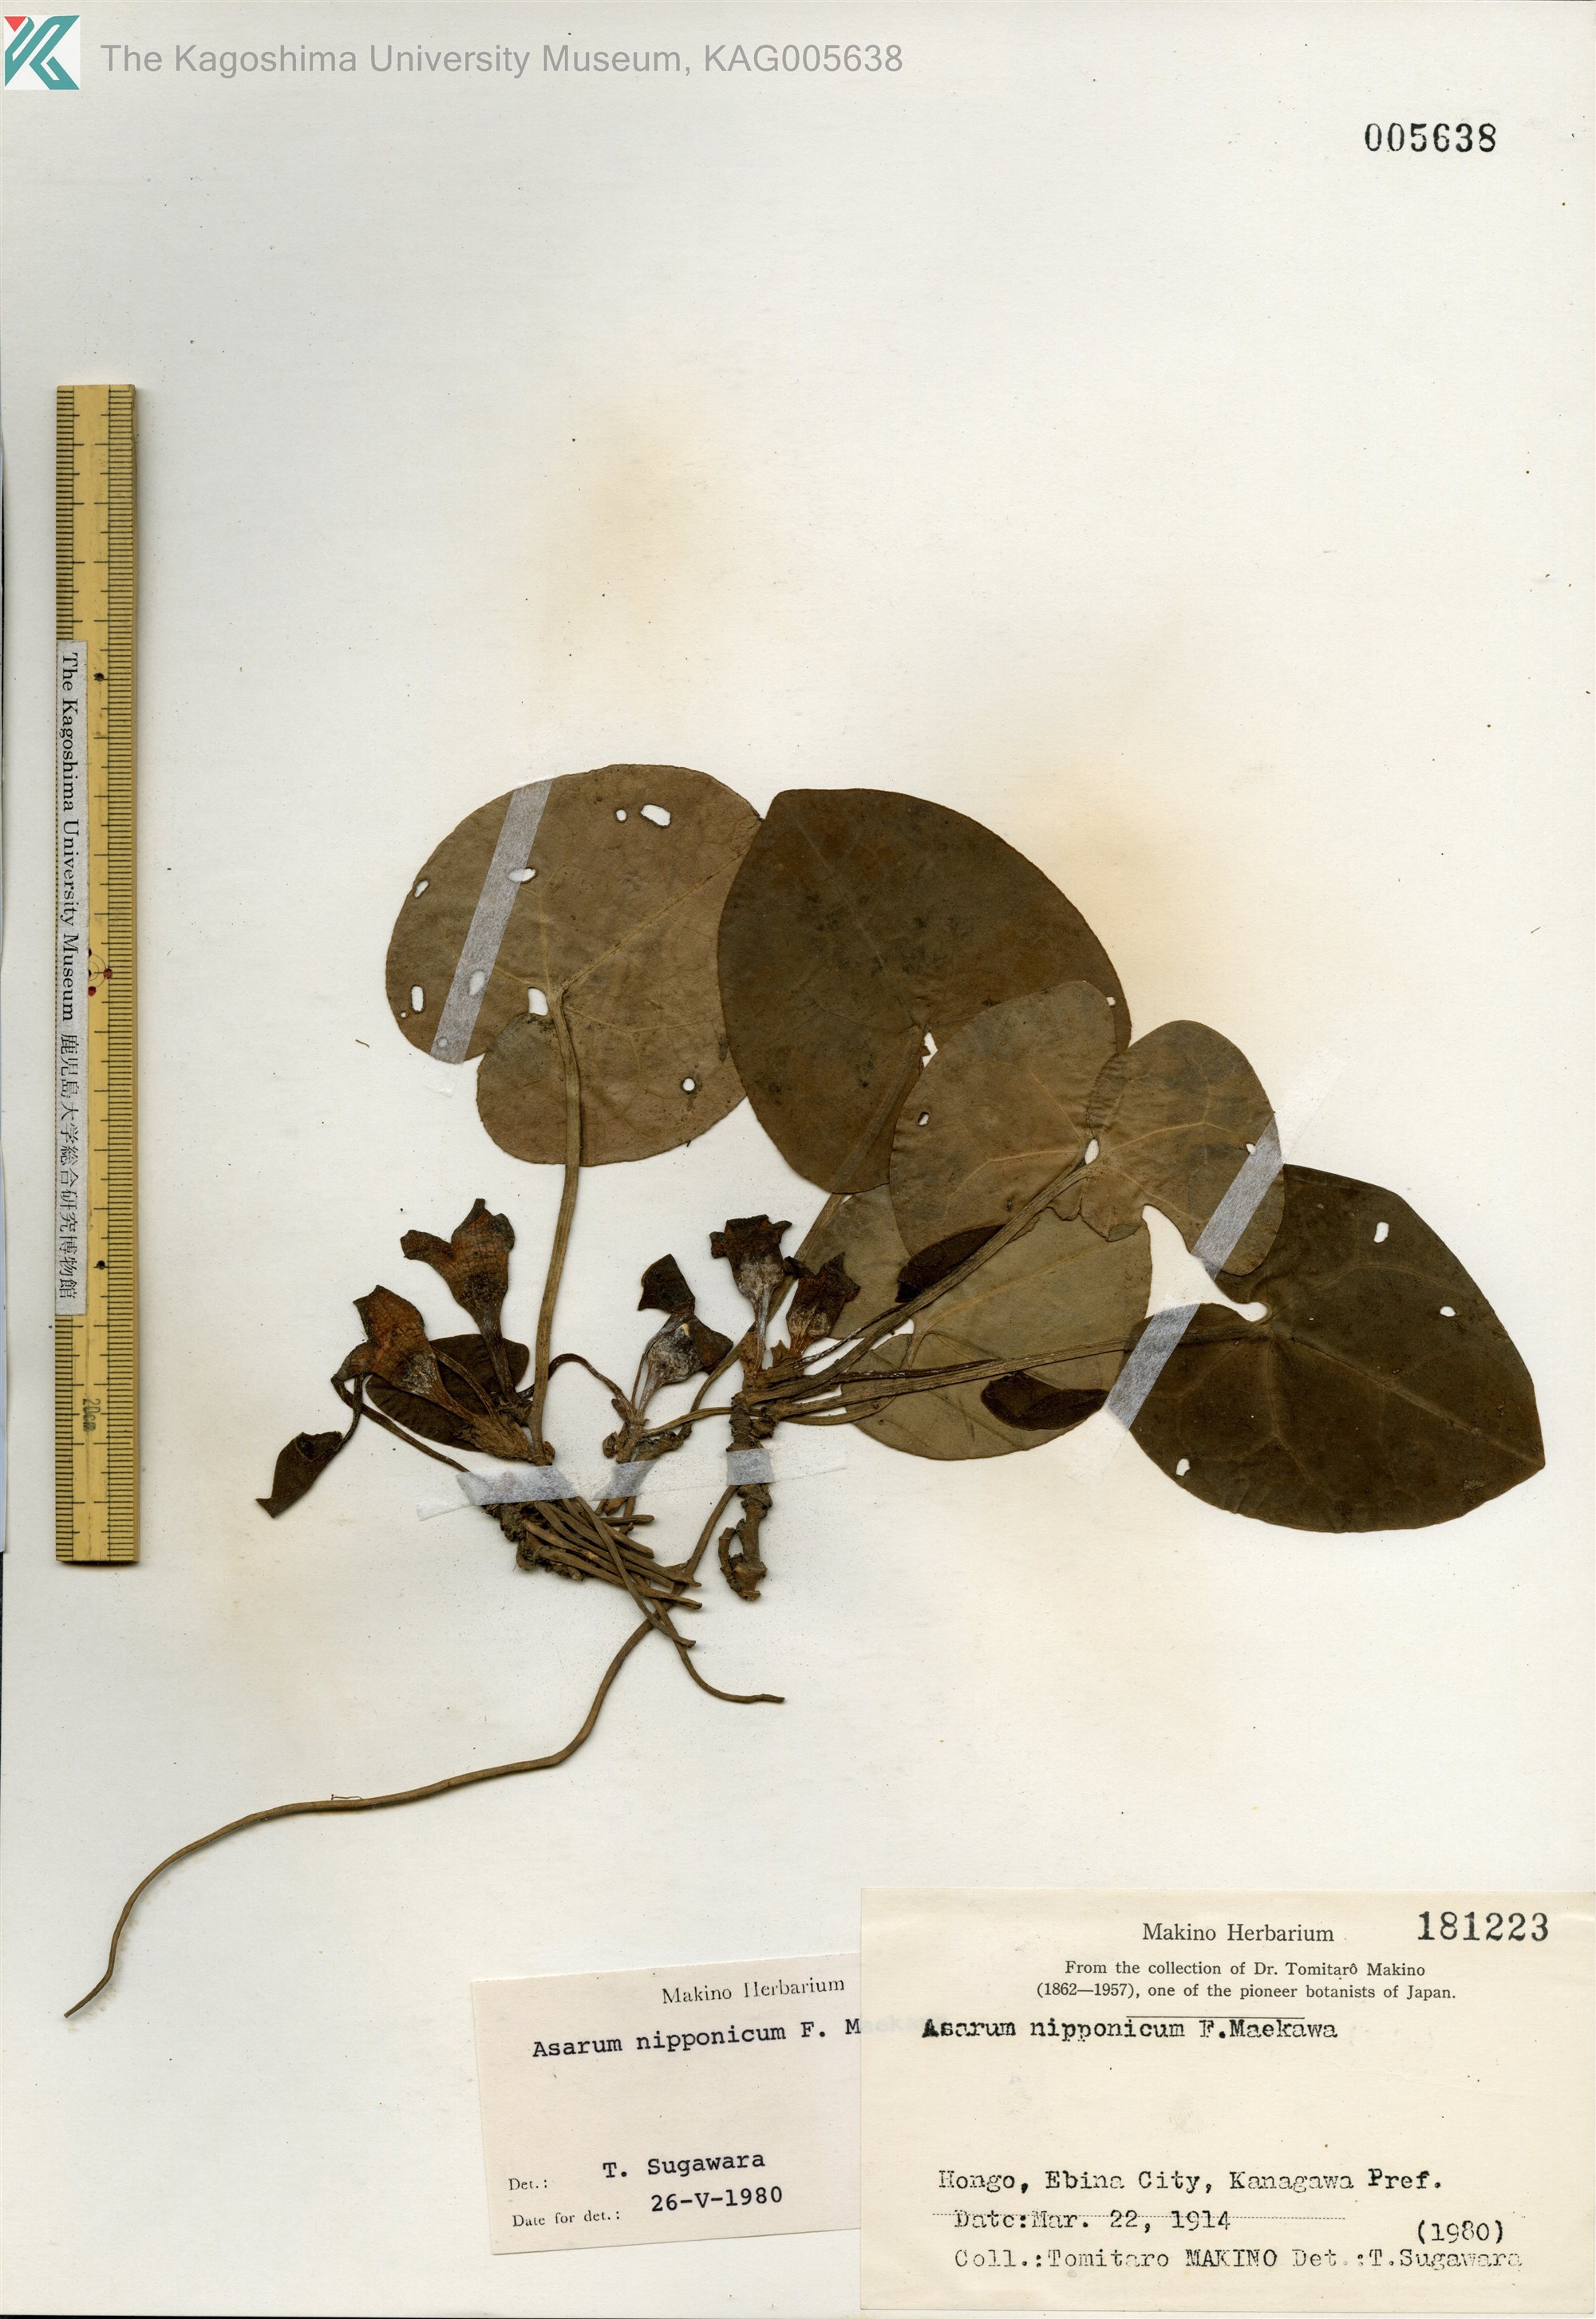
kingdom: Plantae
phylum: Tracheophyta
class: Magnoliopsida
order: Piperales
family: Aristolochiaceae
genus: Asarum
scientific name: Asarum nipponicum
